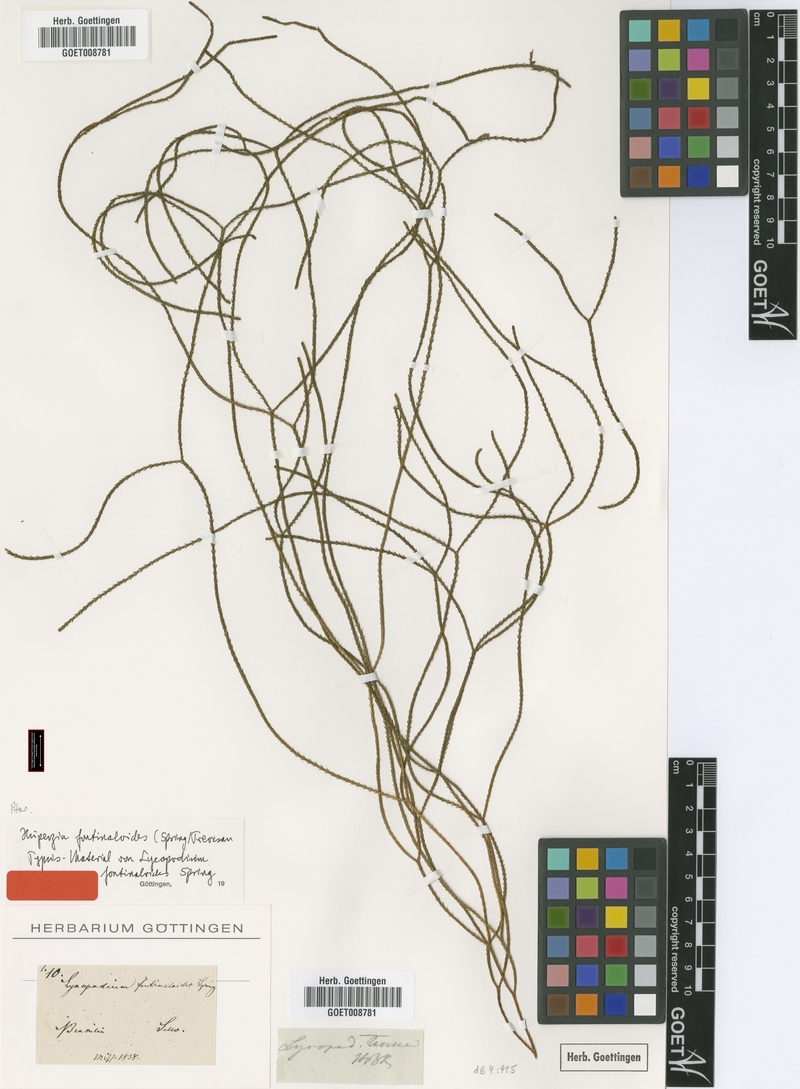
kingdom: Plantae
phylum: Tracheophyta
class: Lycopodiopsida
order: Lycopodiales
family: Lycopodiaceae
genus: Phlegmariurus
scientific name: Phlegmariurus fontinaloides
